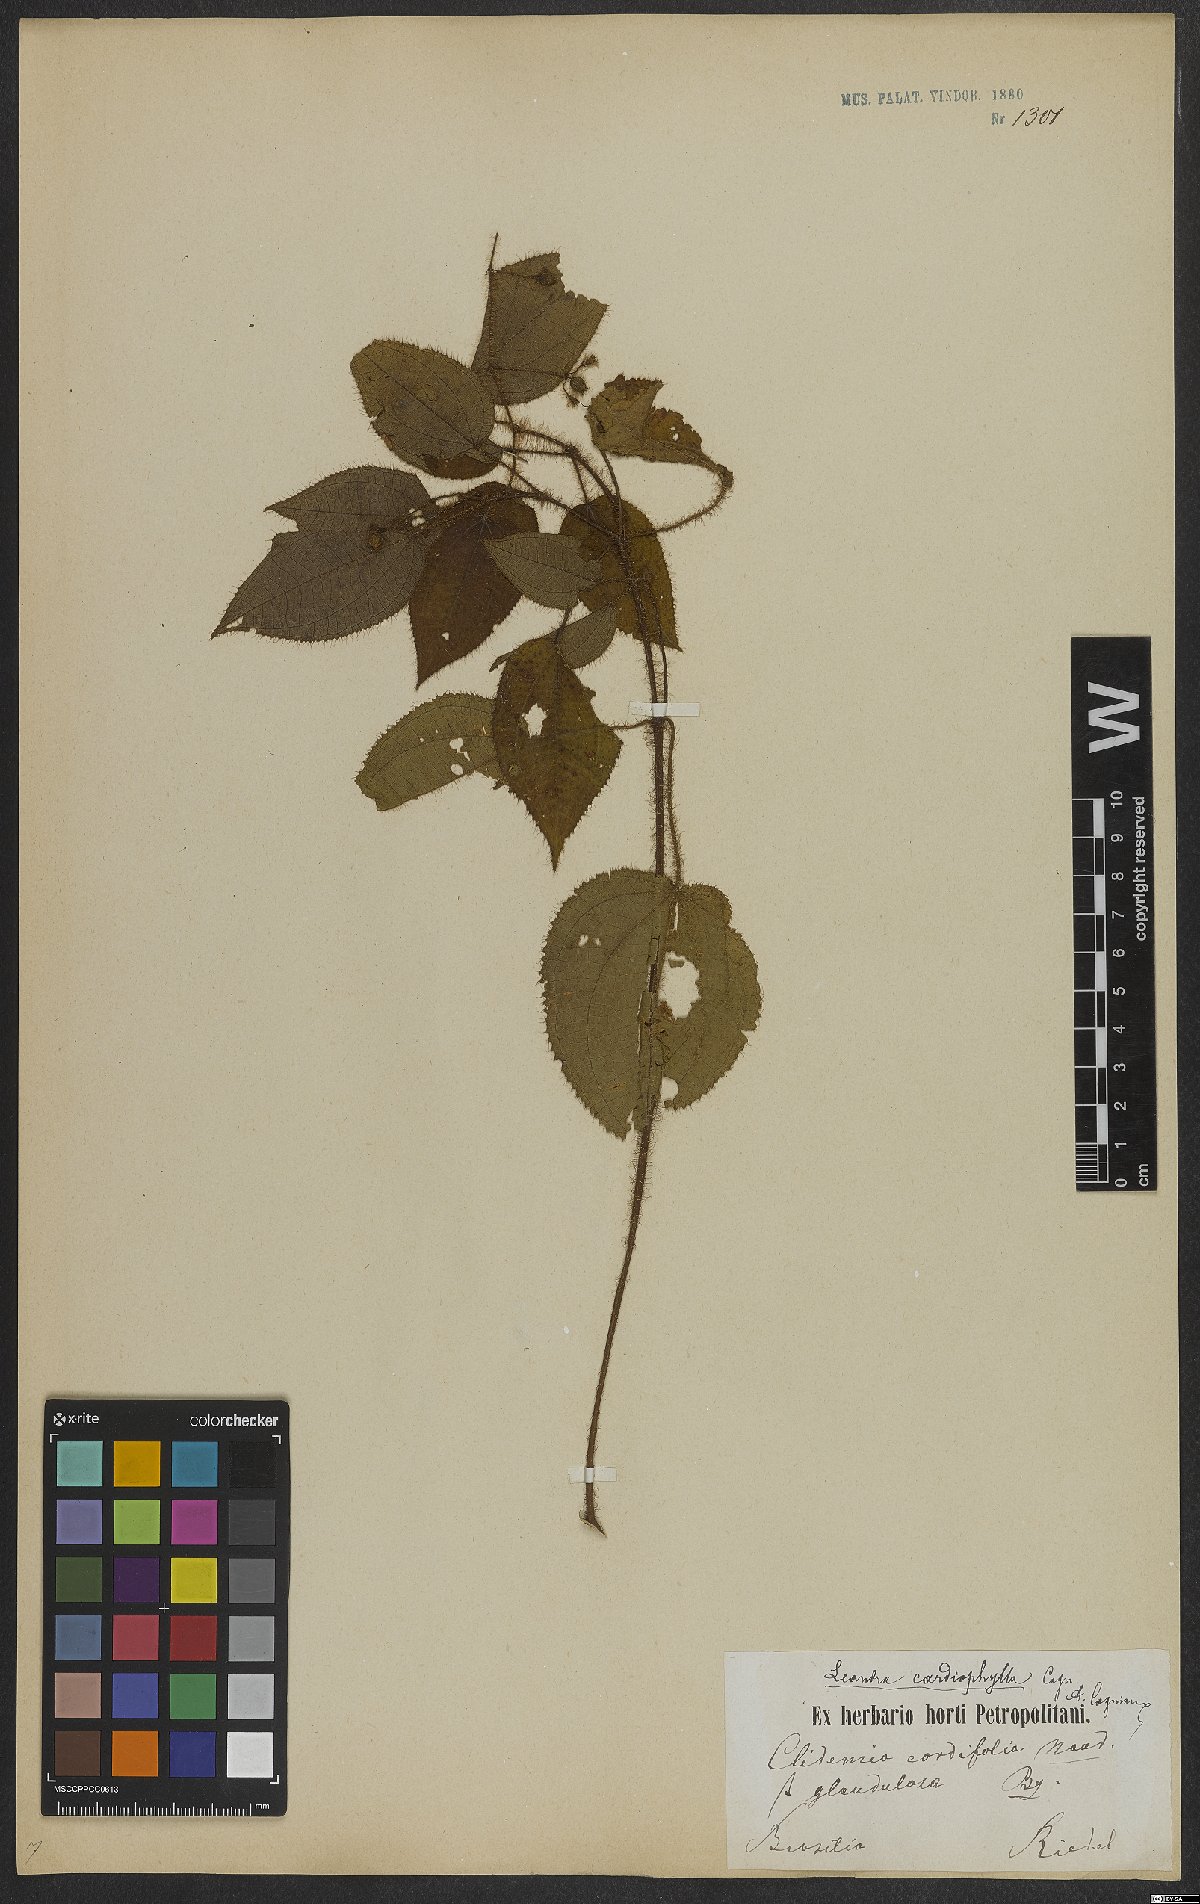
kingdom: Plantae
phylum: Tracheophyta
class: Magnoliopsida
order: Myrtales
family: Melastomataceae
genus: Miconia
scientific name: Miconia leacordifolia
